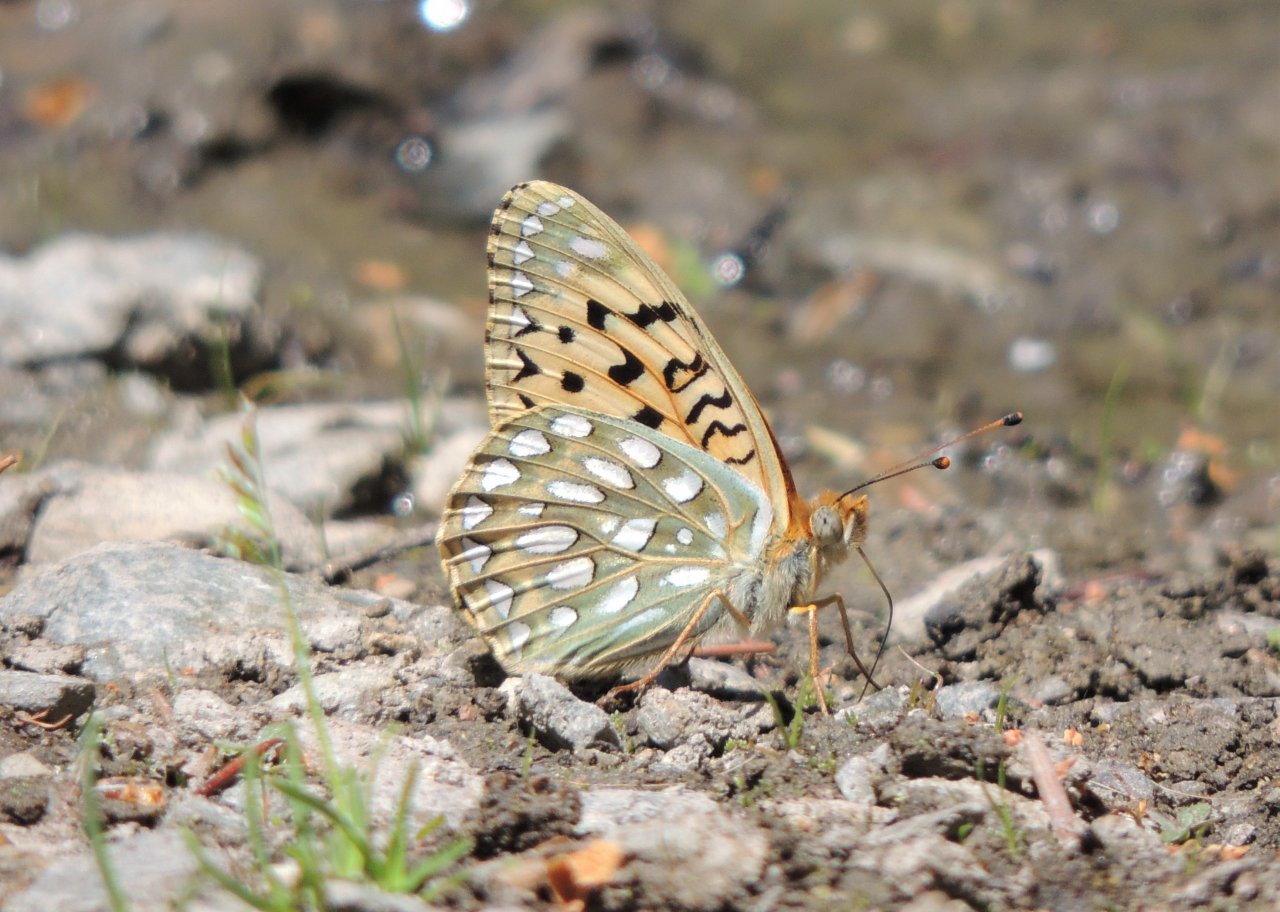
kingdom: Animalia
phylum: Arthropoda
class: Insecta
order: Lepidoptera
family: Nymphalidae
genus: Speyeria
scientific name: Speyeria callippe
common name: Callippe Fritillary
